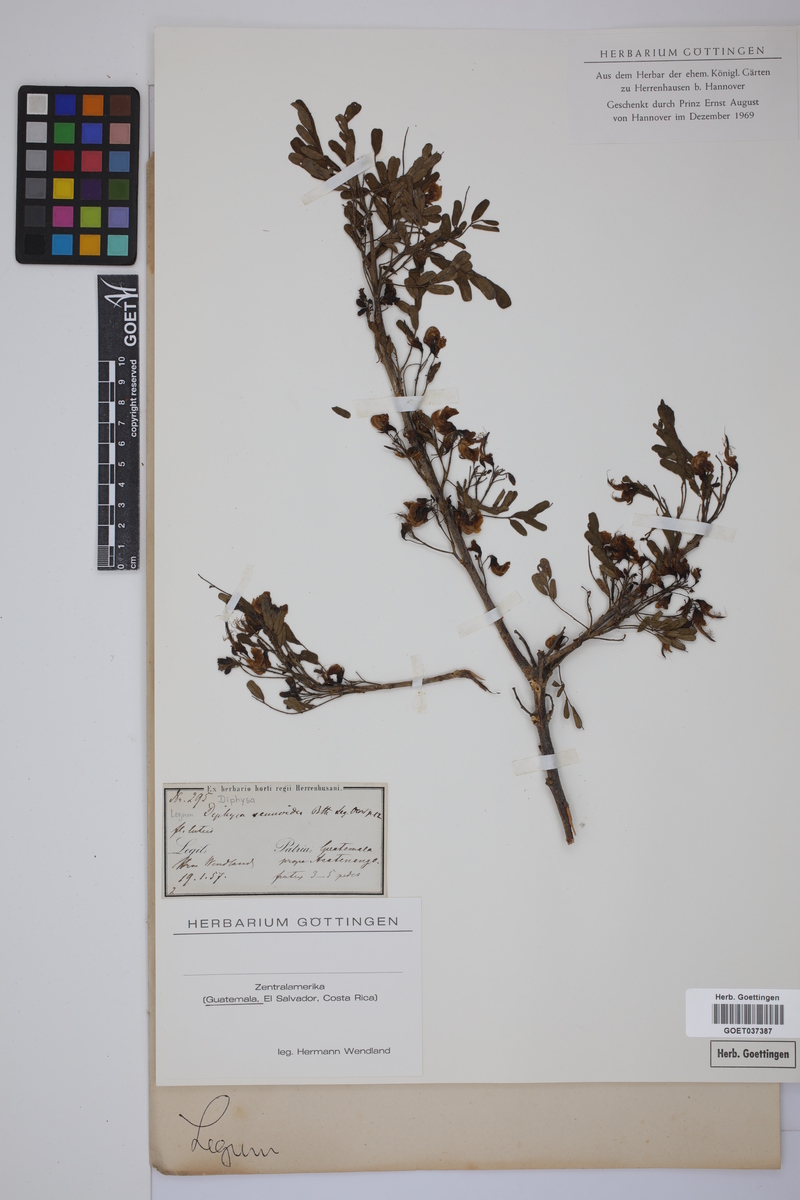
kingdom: Plantae
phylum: Tracheophyta
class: Magnoliopsida
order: Fabales
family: Fabaceae
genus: Diphysa
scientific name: Diphysa sennoides
